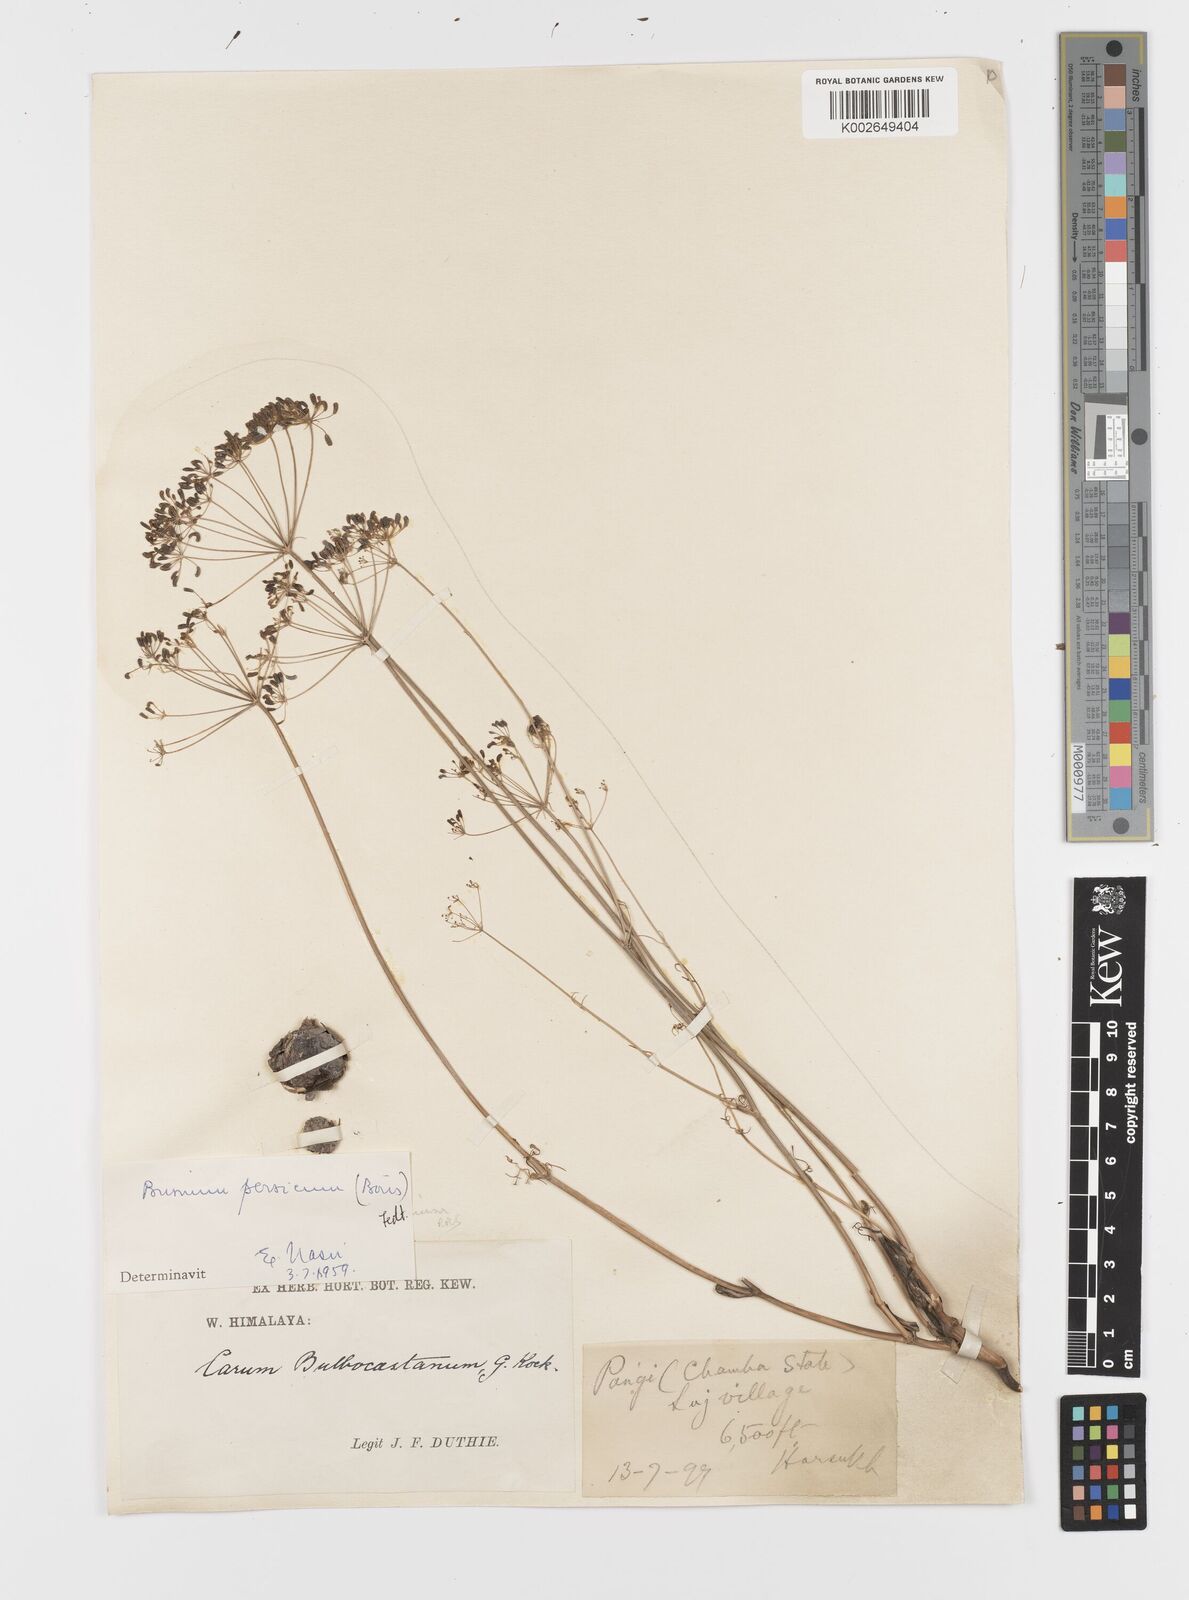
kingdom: Plantae
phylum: Tracheophyta
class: Magnoliopsida
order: Apiales
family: Apiaceae
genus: Elwendia
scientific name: Elwendia persica
